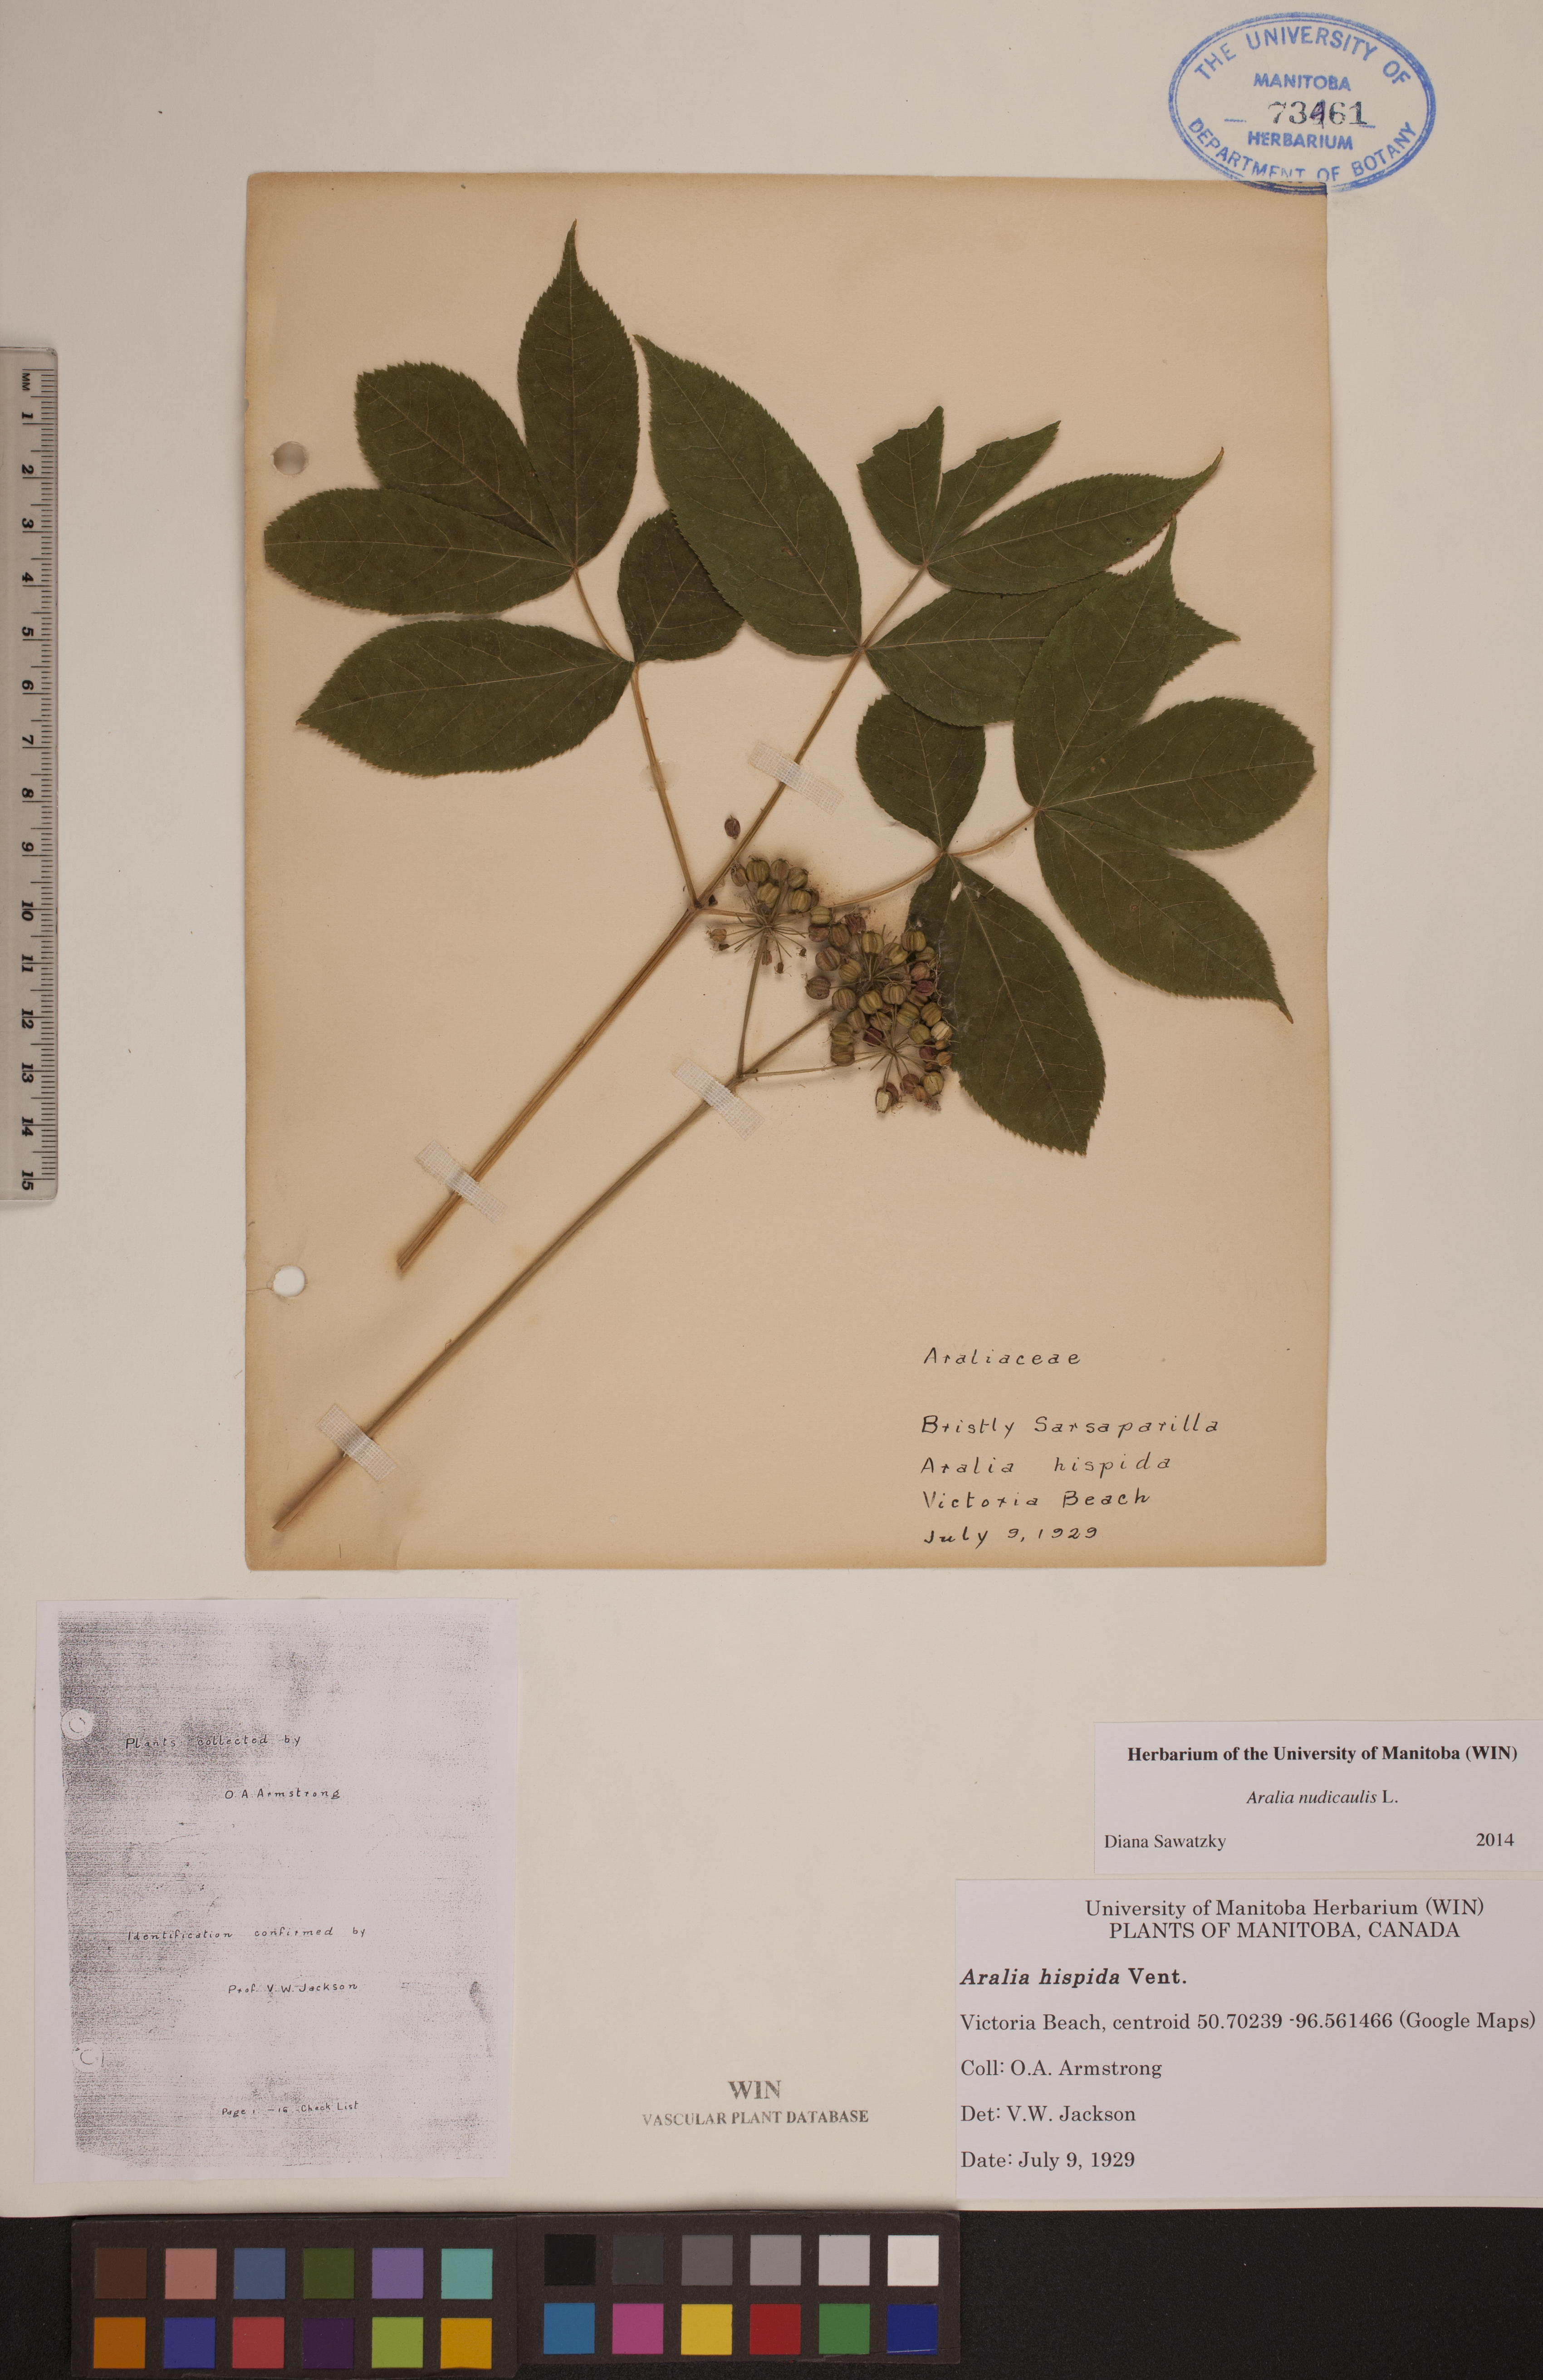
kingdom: Plantae
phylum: Tracheophyta
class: Magnoliopsida
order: Apiales
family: Araliaceae
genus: Aralia
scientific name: Aralia hispida
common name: Bristly sarsaparilla
